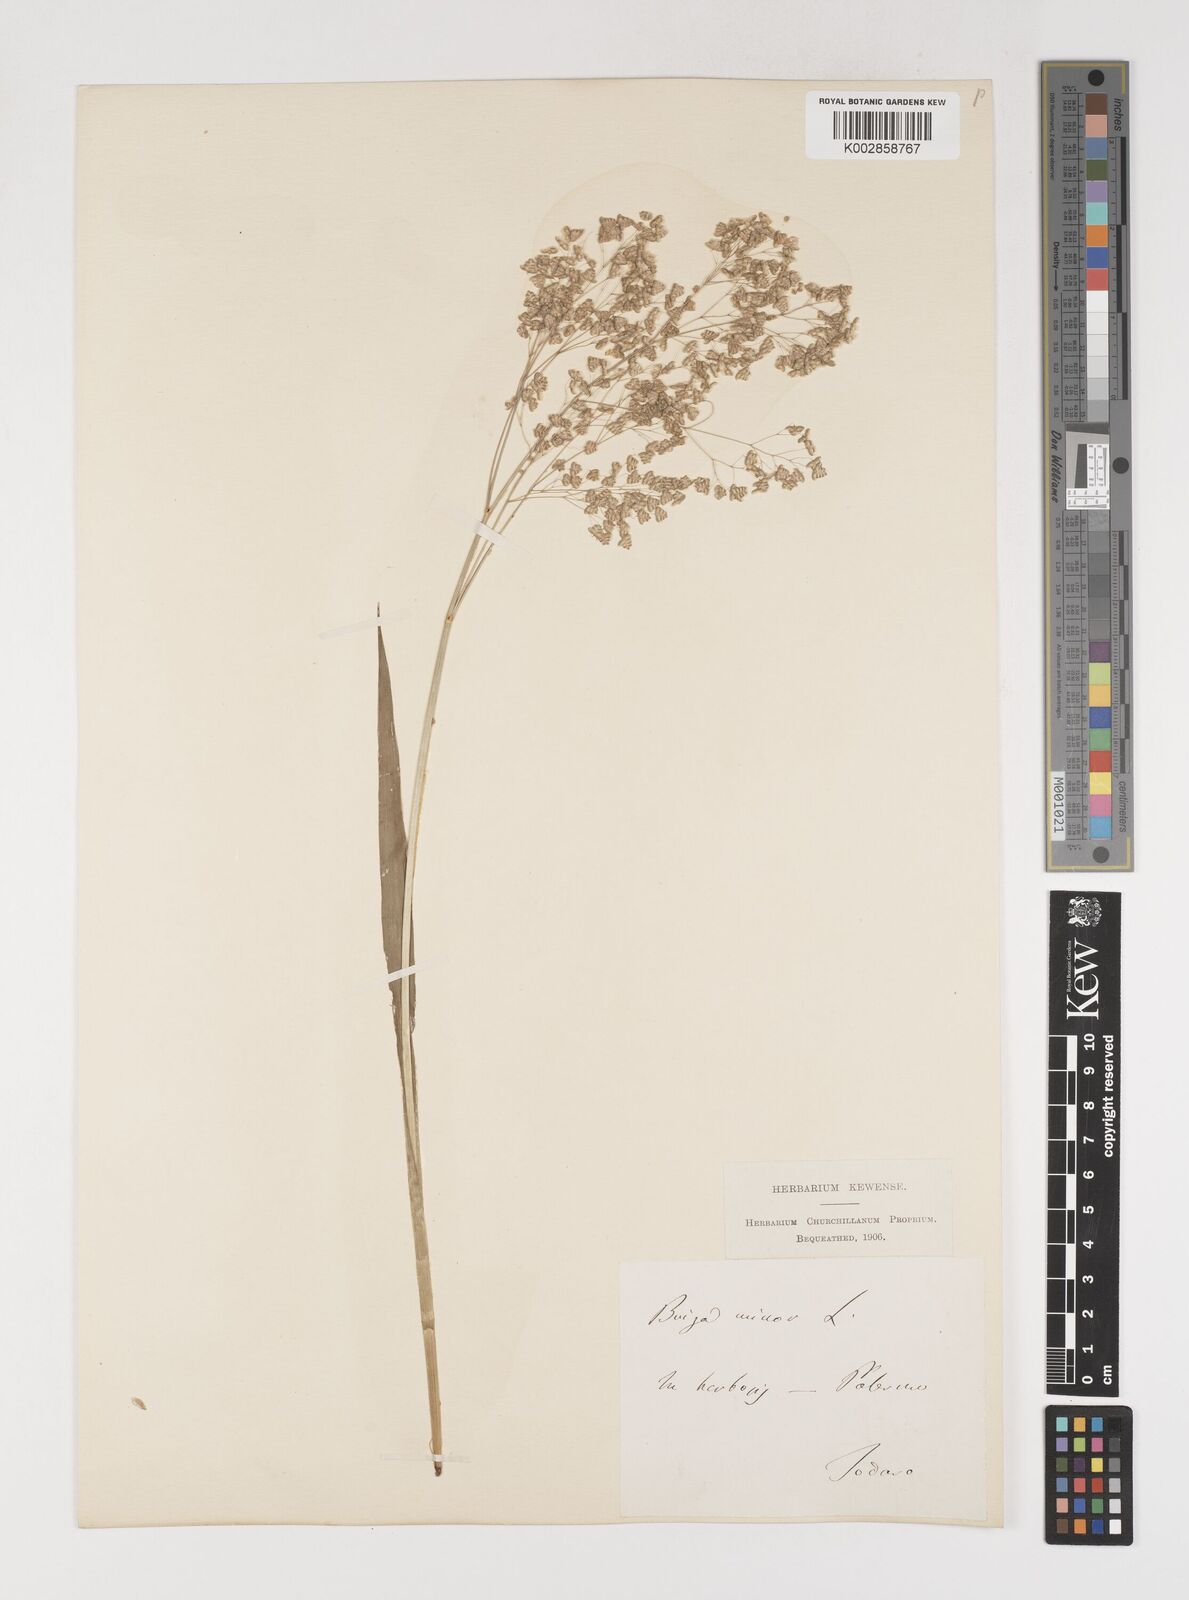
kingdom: Plantae
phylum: Tracheophyta
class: Liliopsida
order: Poales
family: Poaceae
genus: Briza
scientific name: Briza minor
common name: Lesser quaking-grass
